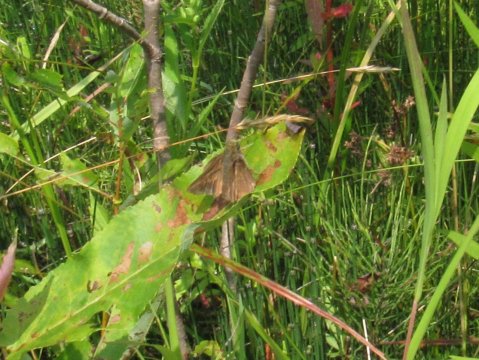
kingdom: Animalia
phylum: Arthropoda
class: Insecta
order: Lepidoptera
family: Hesperiidae
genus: Euphyes
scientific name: Euphyes vestris
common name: Dun Skipper
